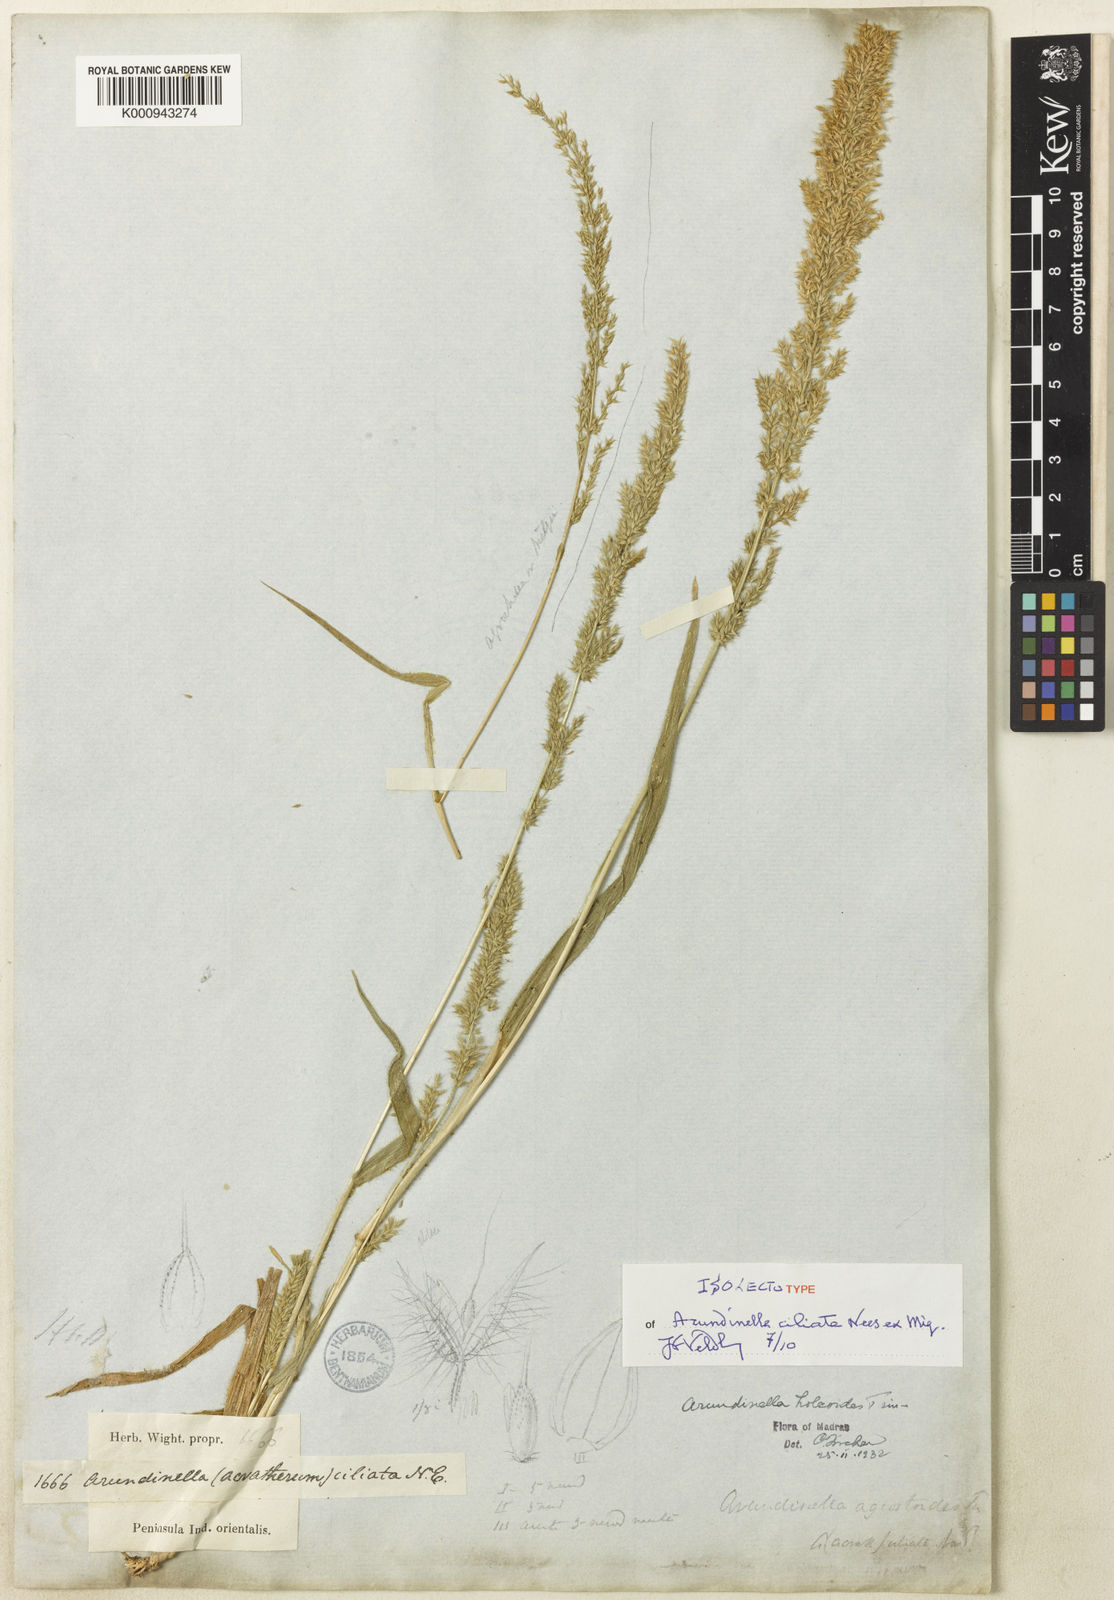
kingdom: Plantae
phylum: Tracheophyta
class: Liliopsida
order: Poales
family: Poaceae
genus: Arundinella
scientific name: Arundinella ciliata
